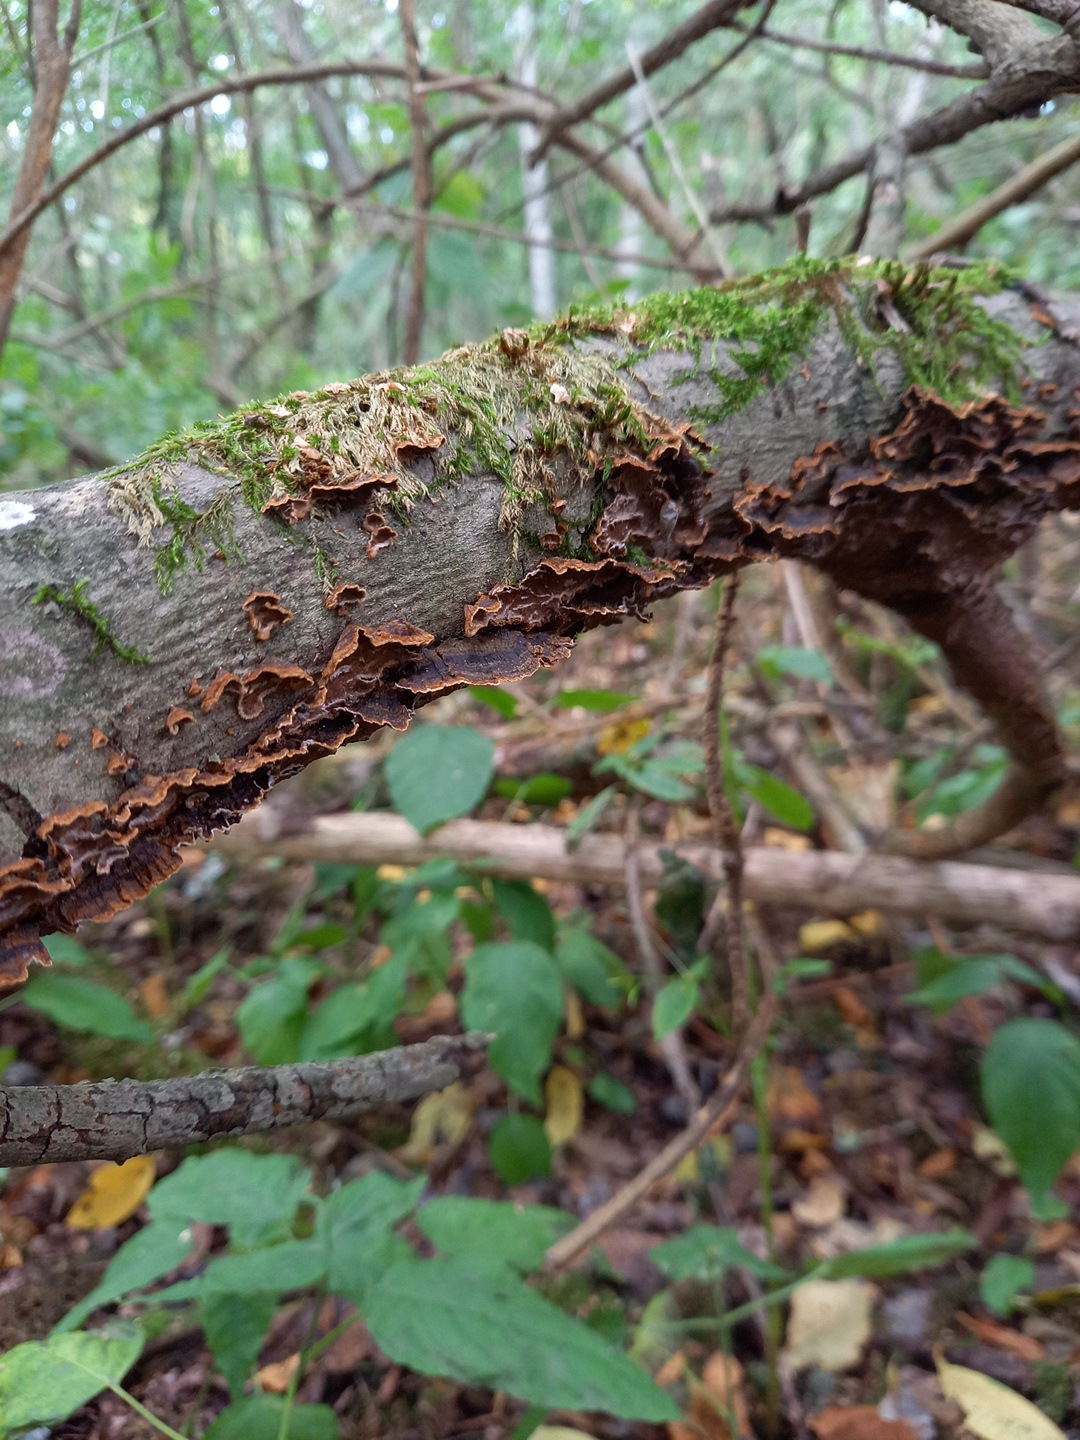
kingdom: Fungi
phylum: Basidiomycota
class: Agaricomycetes
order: Hymenochaetales
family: Hymenochaetaceae
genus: Hydnoporia
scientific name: Hydnoporia tabacina
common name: tobaksbrun ruslædersvamp
